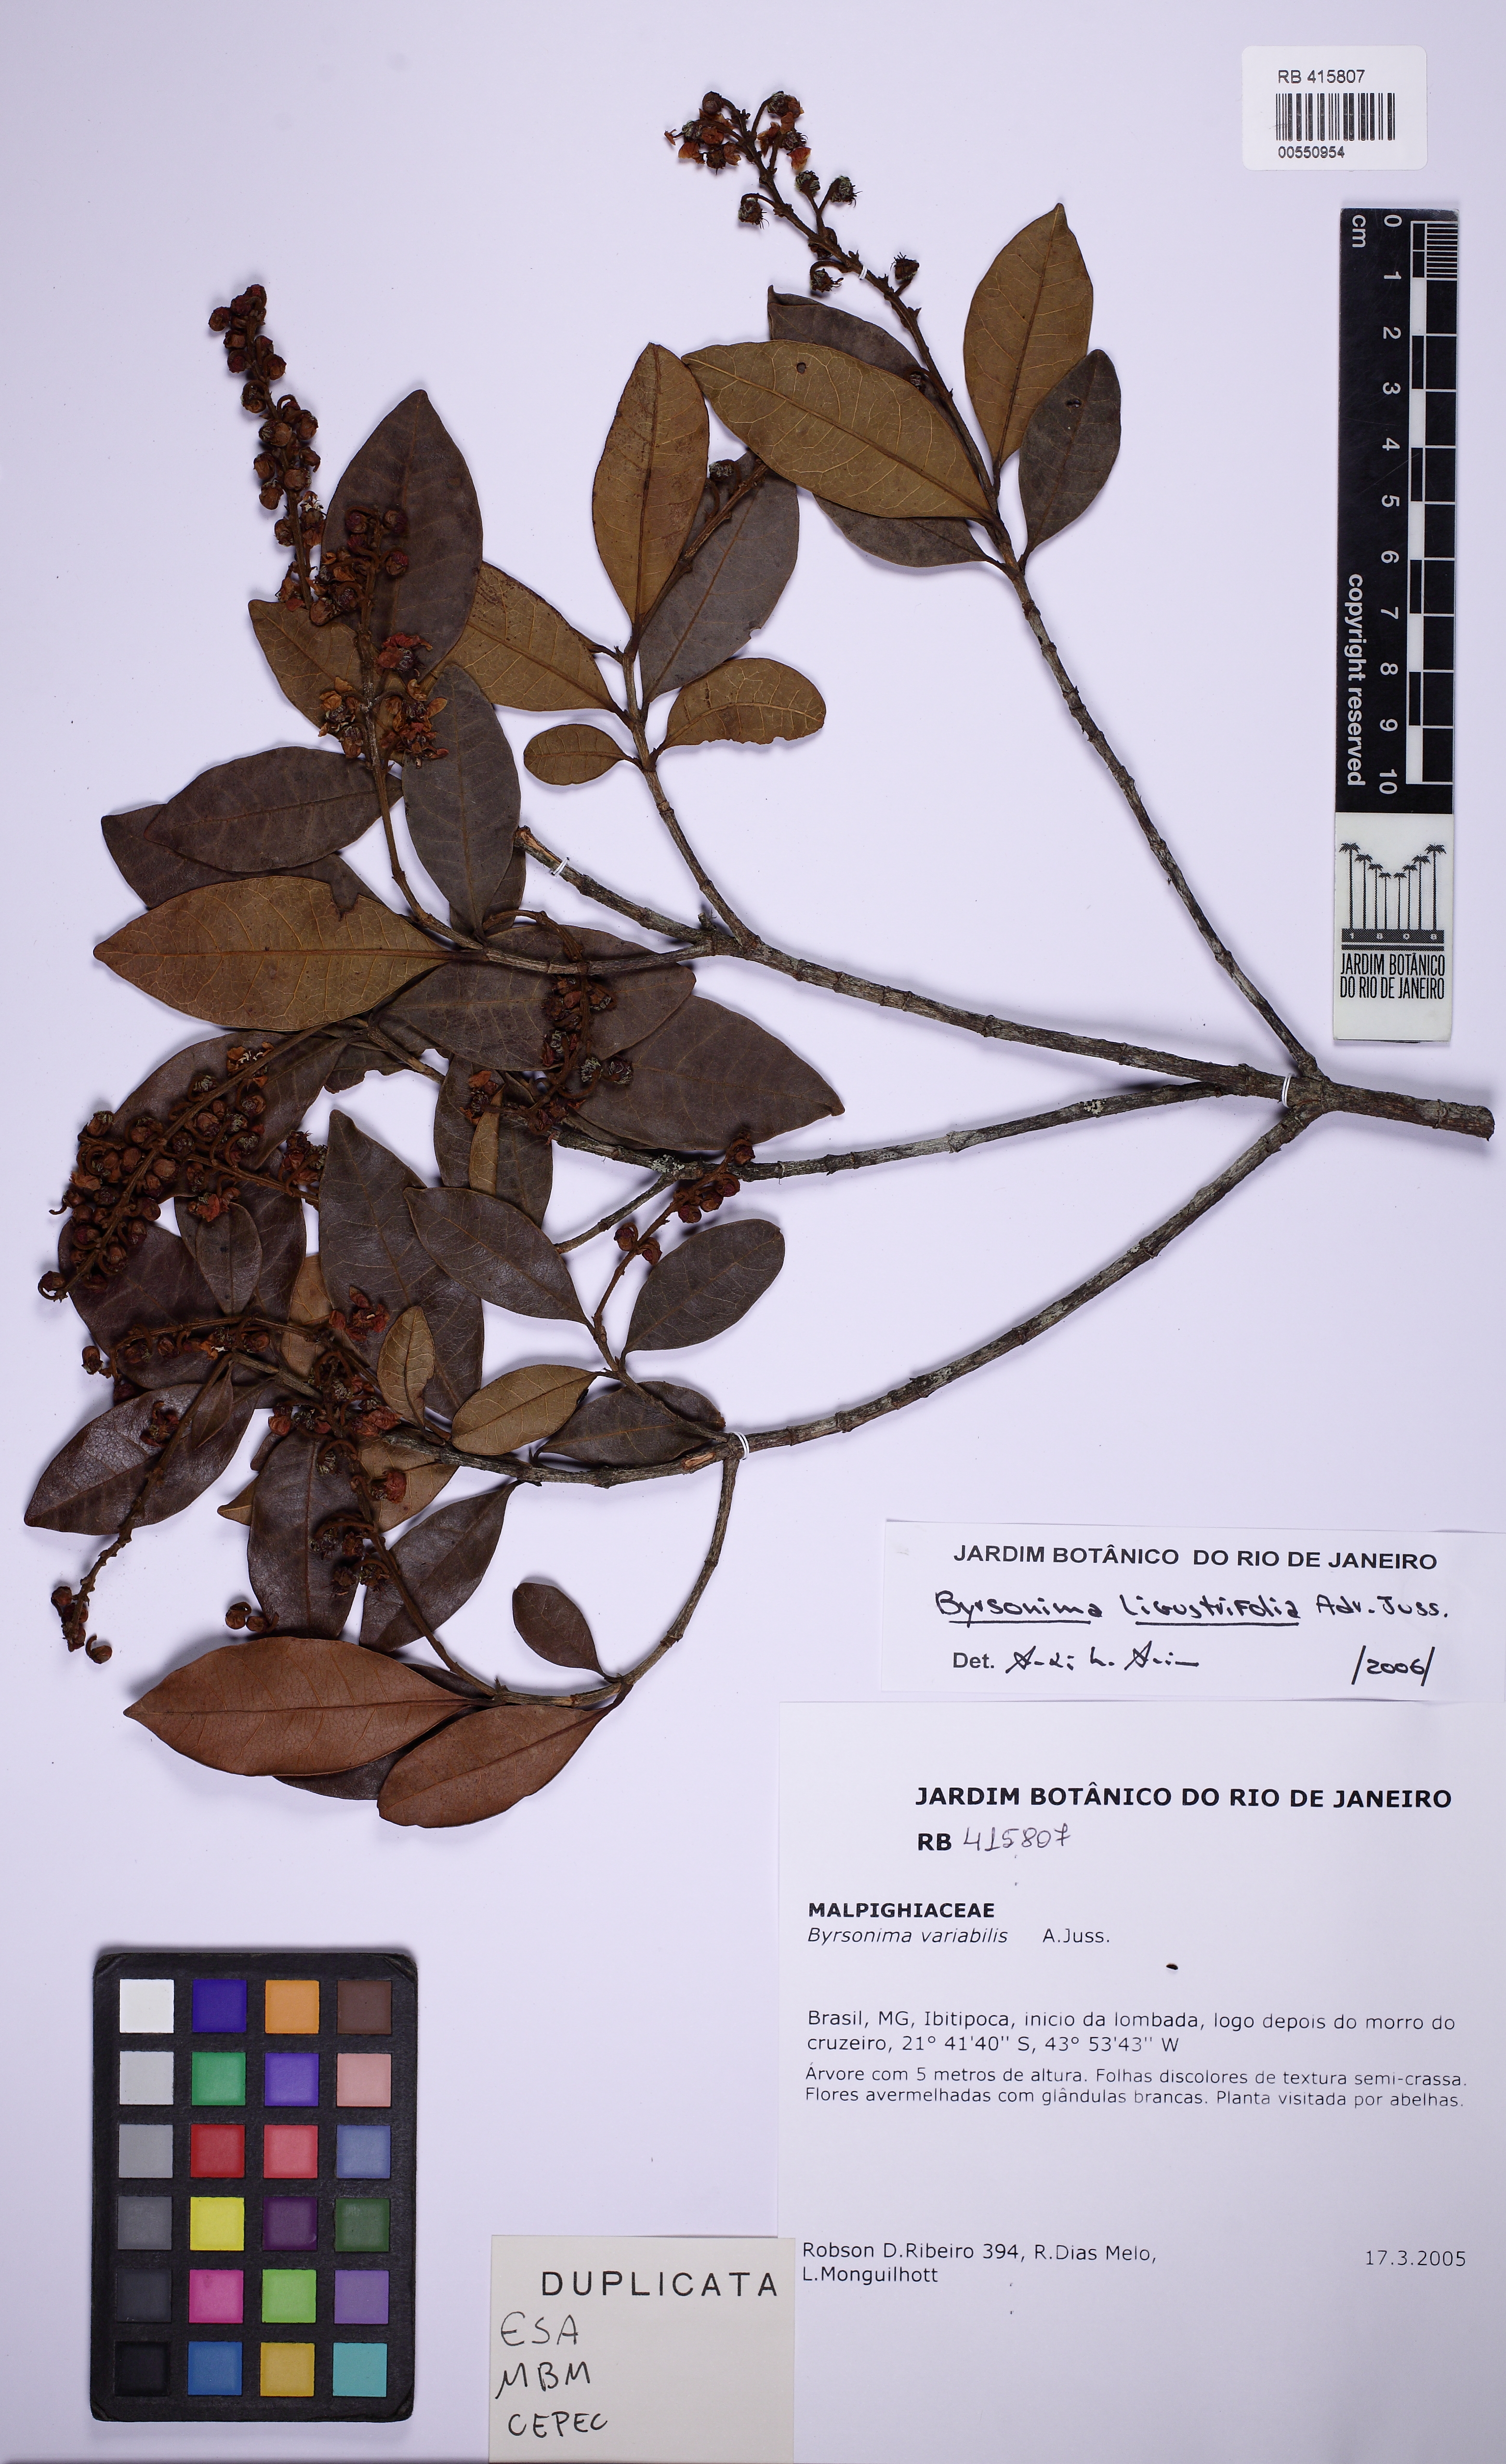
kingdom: Plantae
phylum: Tracheophyta
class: Magnoliopsida
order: Malpighiales
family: Malpighiaceae
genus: Byrsonima
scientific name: Byrsonima ligustrifolia
